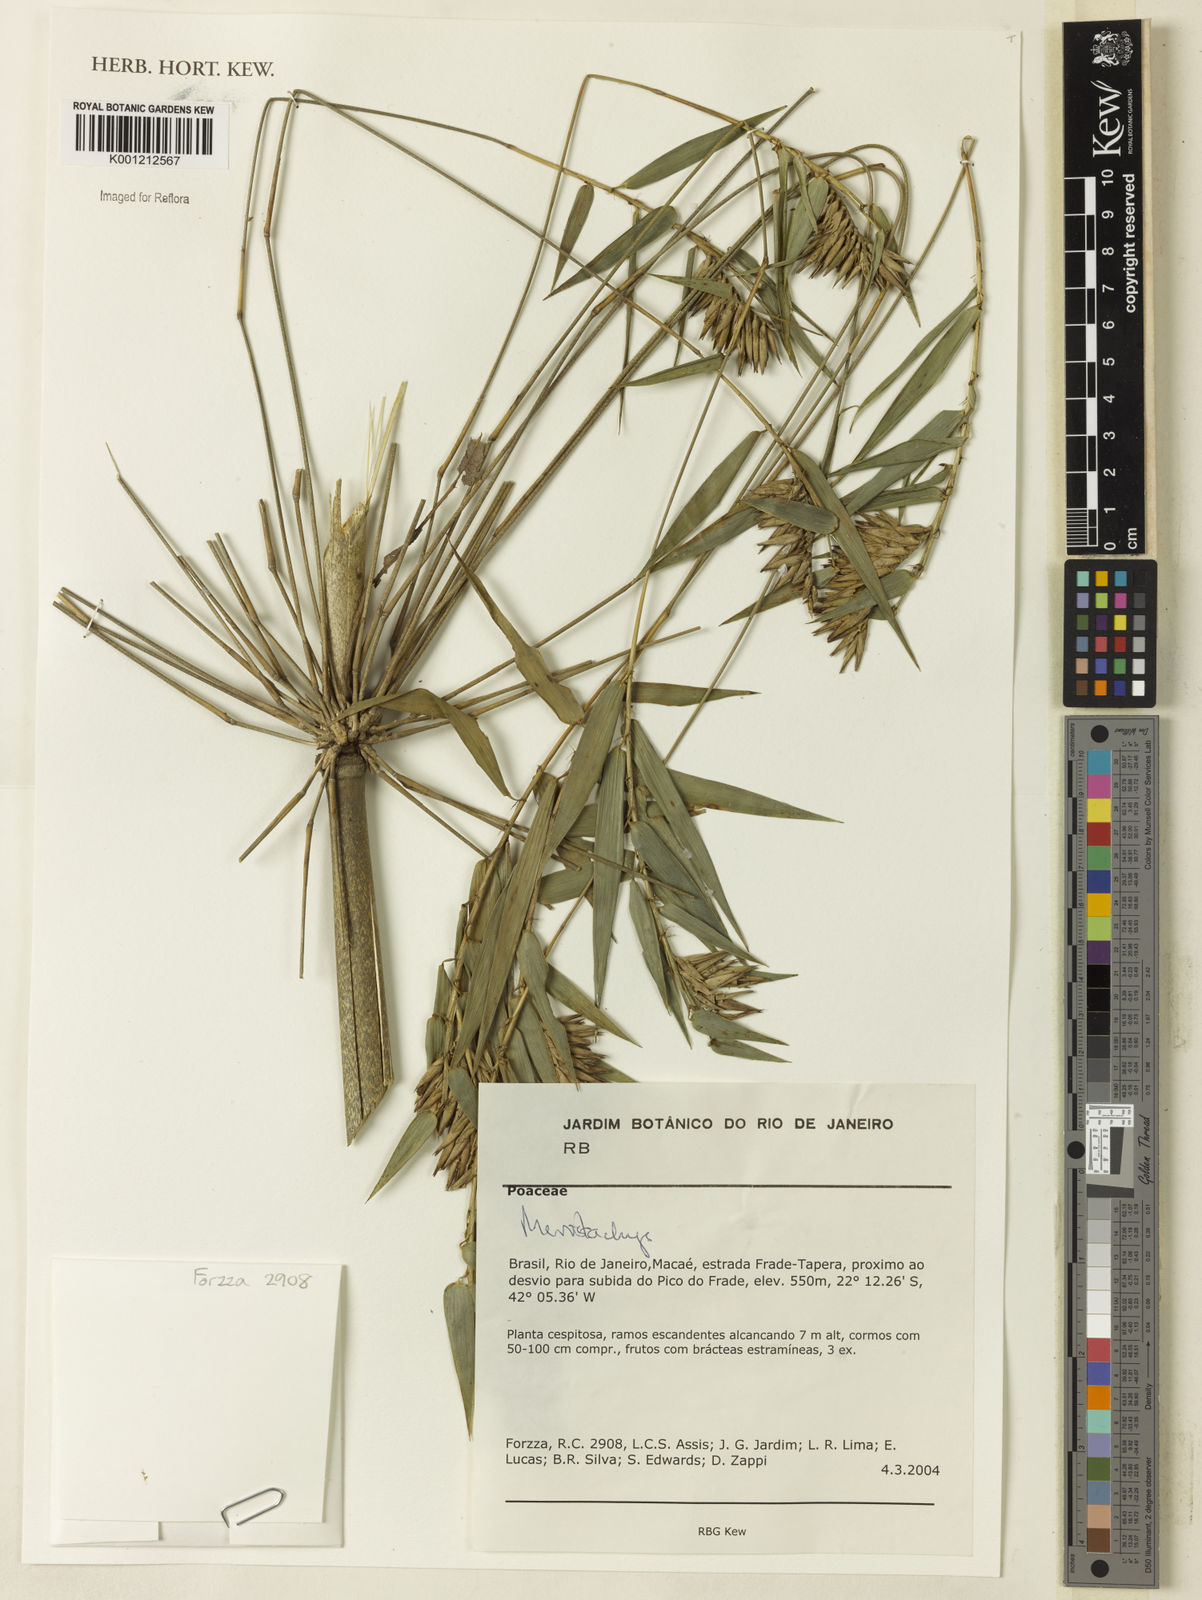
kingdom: Plantae
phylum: Tracheophyta
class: Liliopsida
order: Poales
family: Poaceae
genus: Merostachys
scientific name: Merostachys
